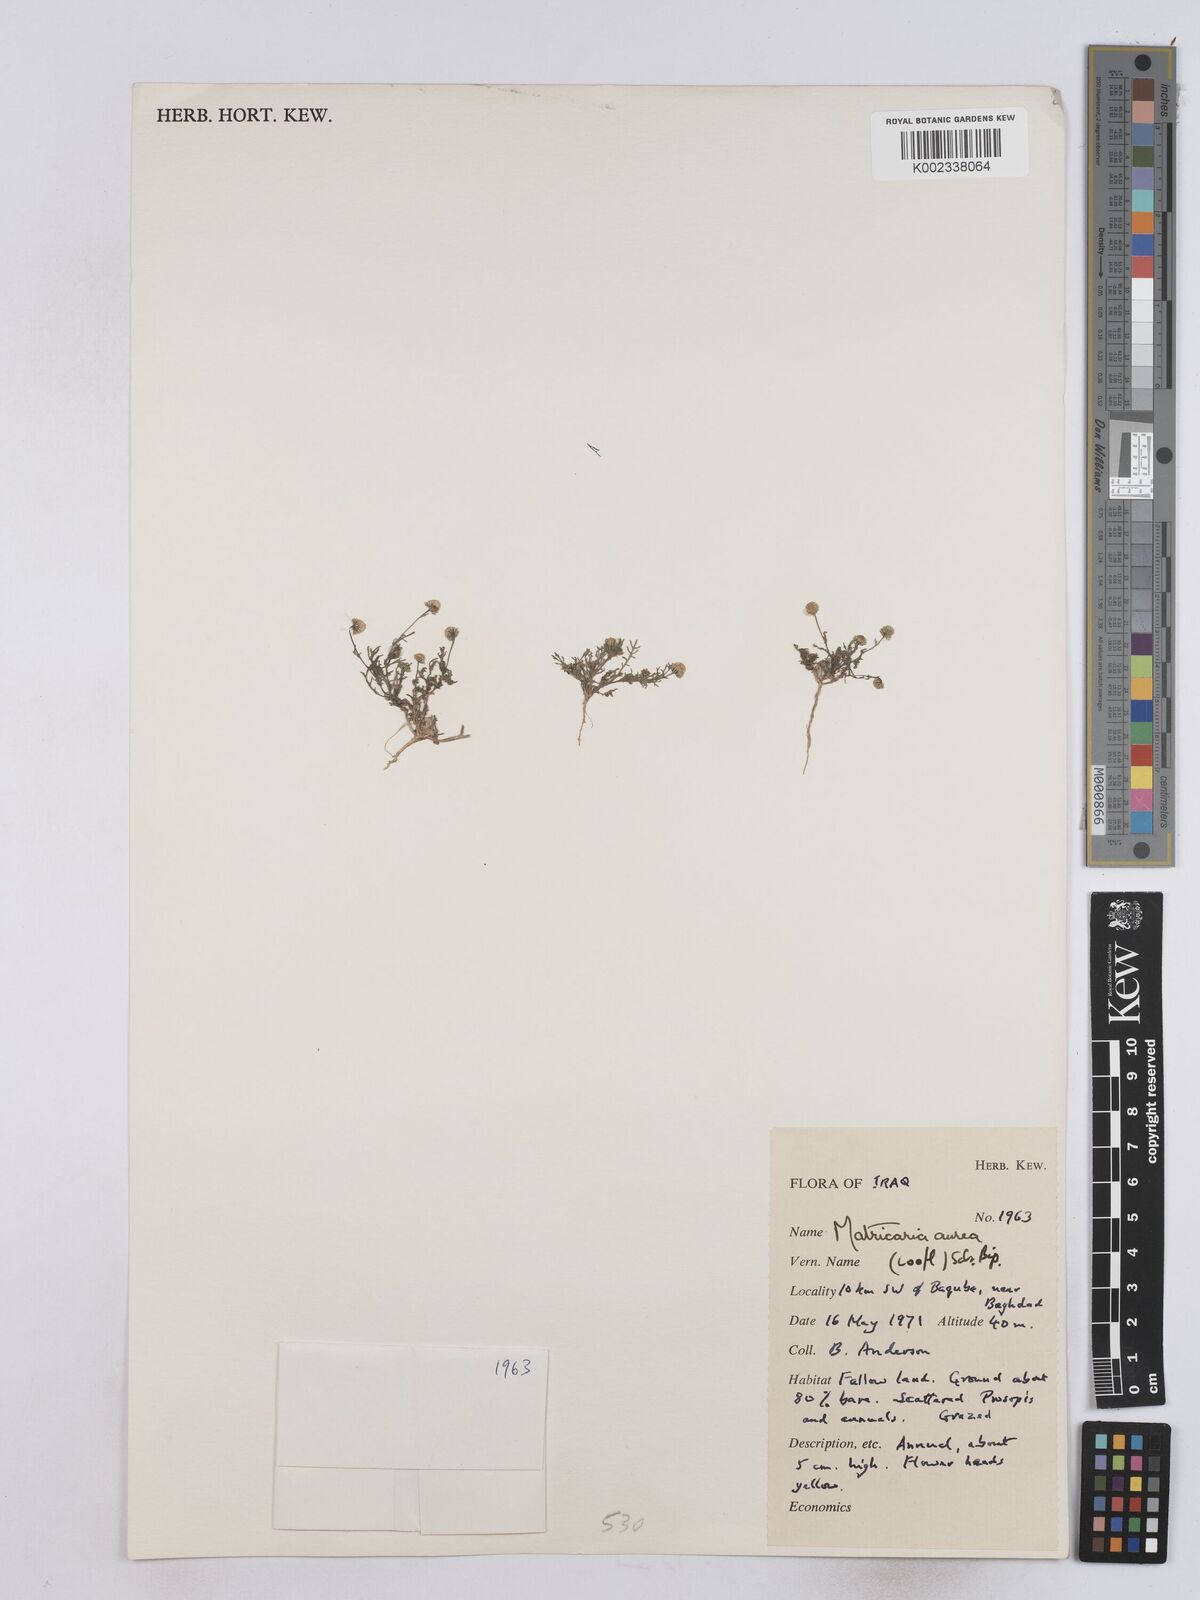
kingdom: Plantae
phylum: Tracheophyta
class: Magnoliopsida
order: Asterales
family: Asteraceae
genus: Matricaria
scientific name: Matricaria aurea
